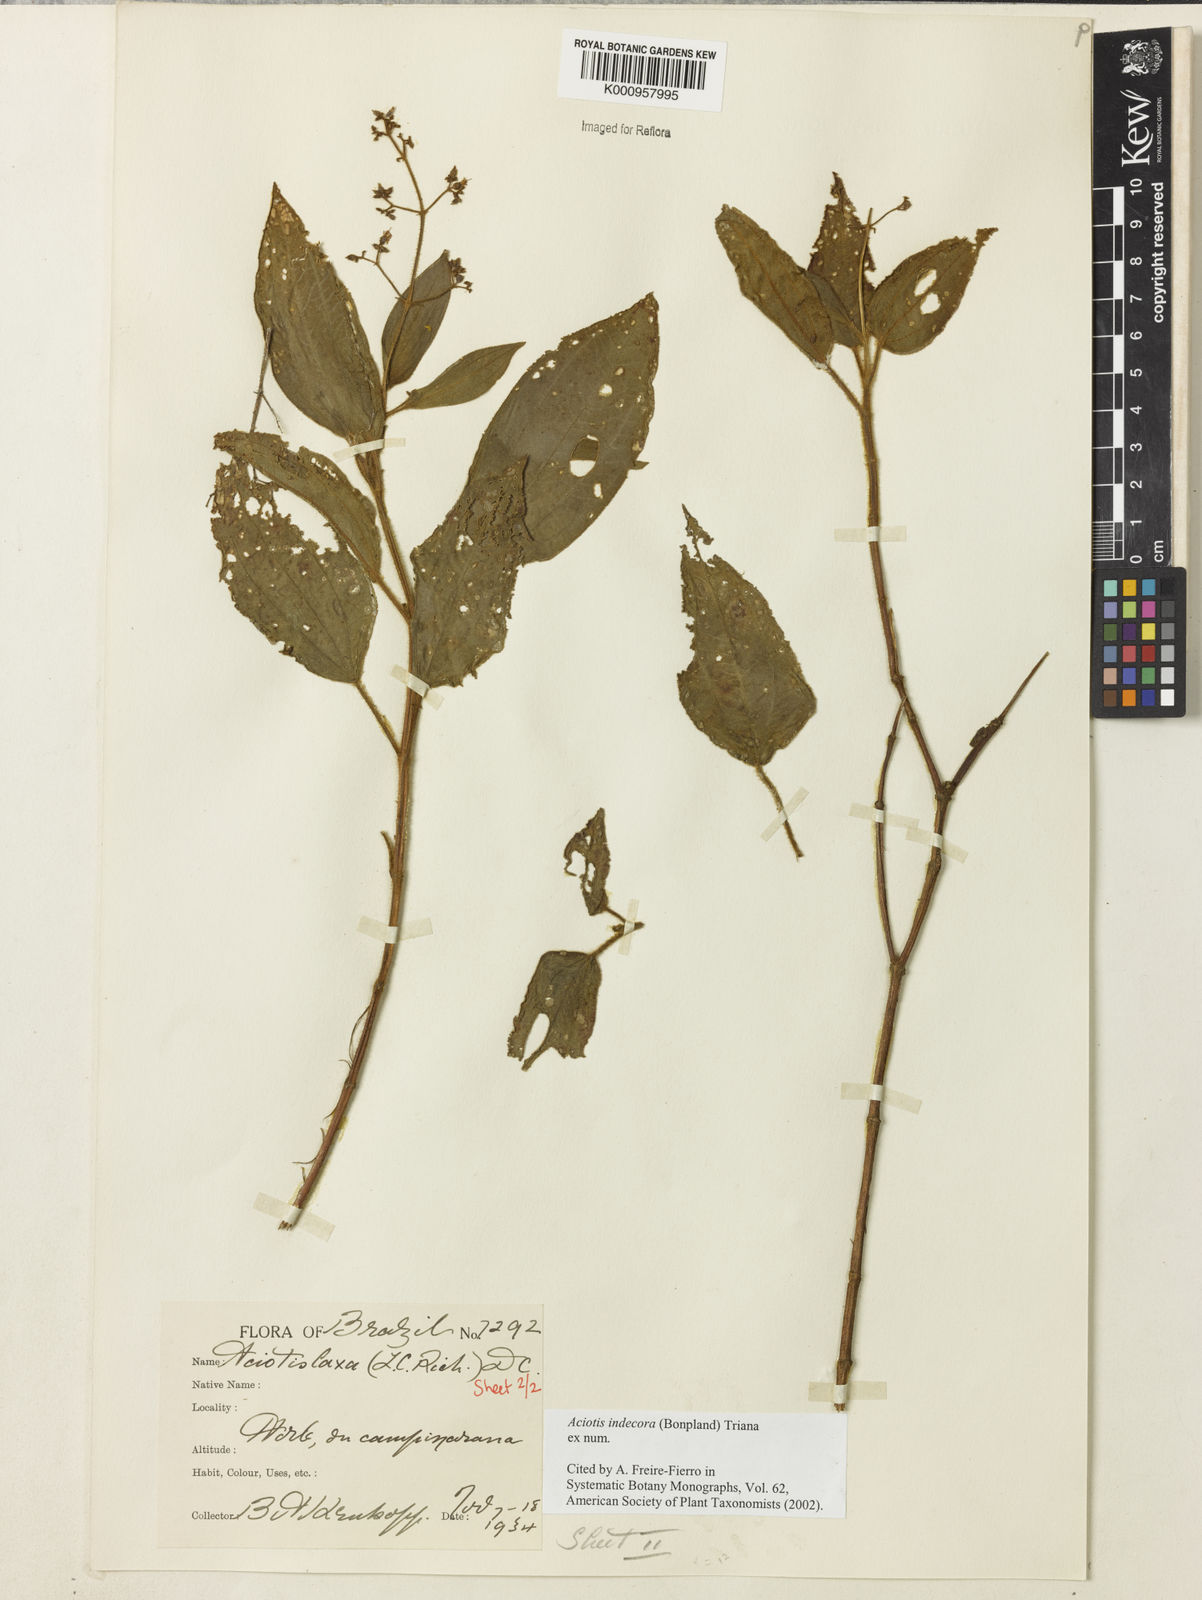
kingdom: Plantae
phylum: Tracheophyta
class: Magnoliopsida
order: Myrtales
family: Melastomataceae
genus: Aciotis
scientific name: Aciotis indecora
